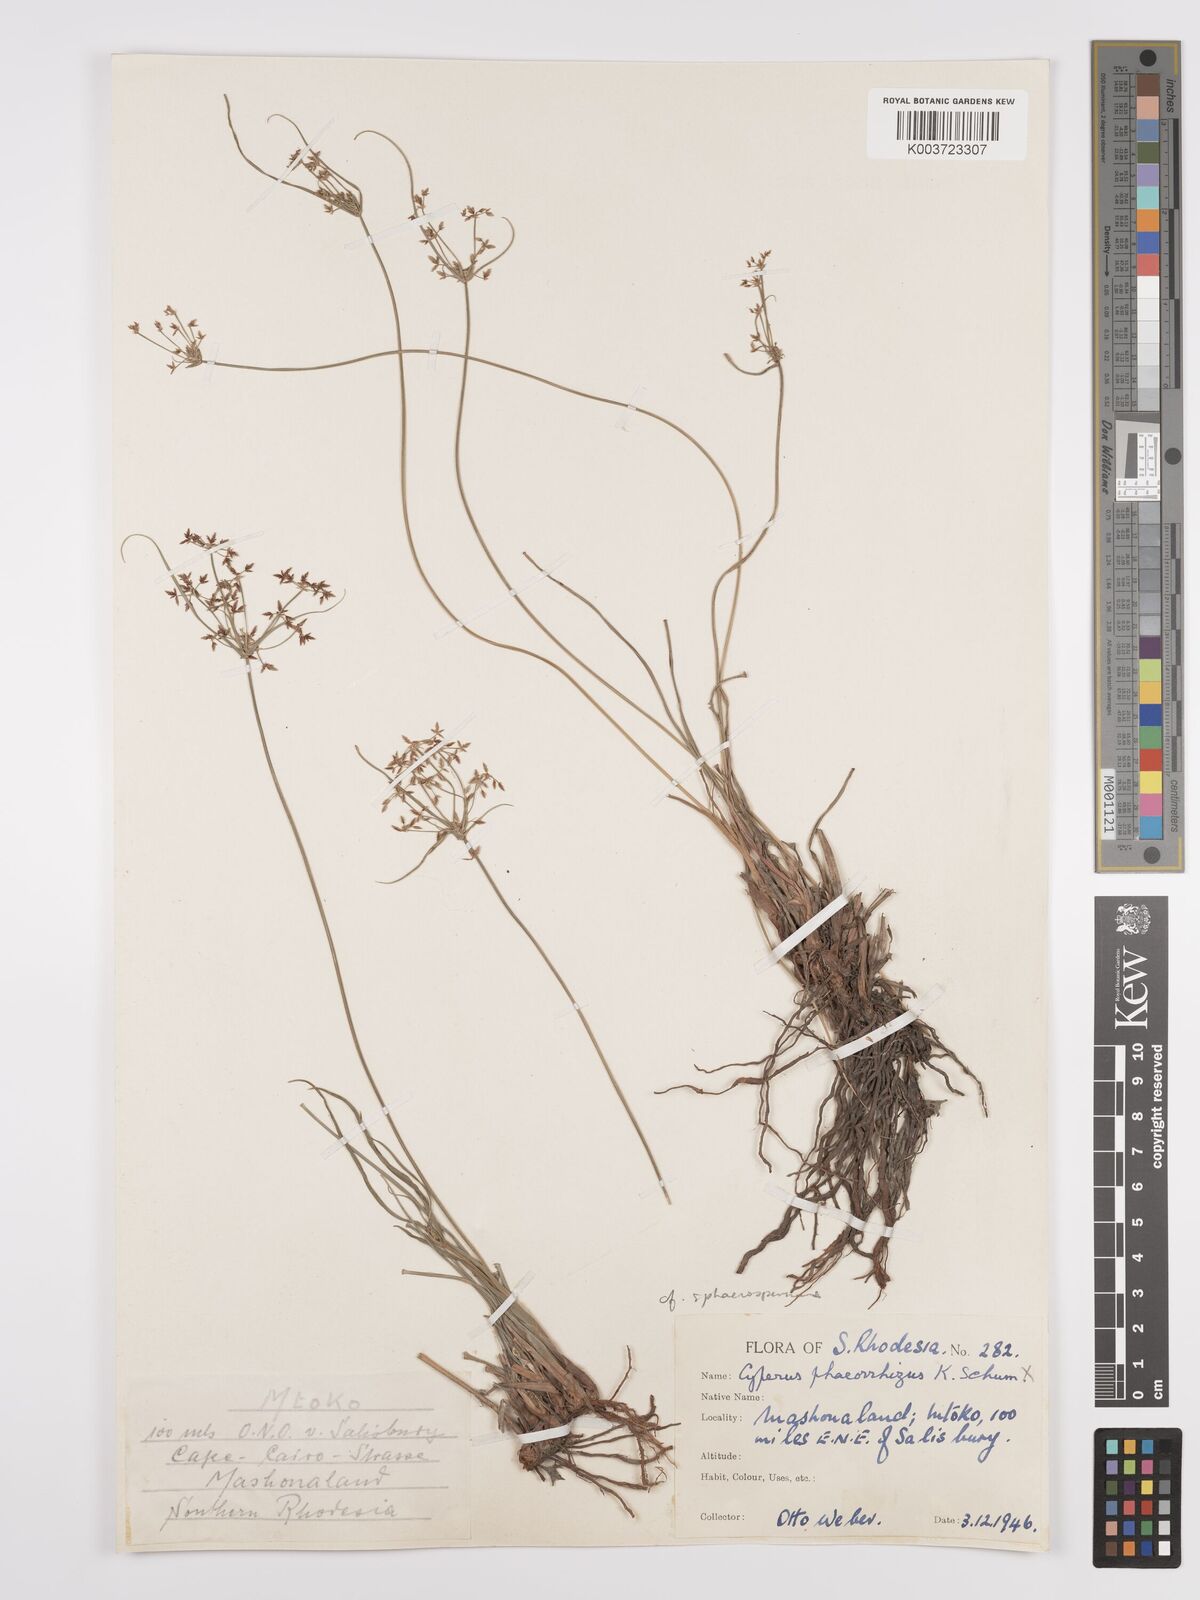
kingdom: Plantae
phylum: Tracheophyta
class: Liliopsida
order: Poales
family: Cyperaceae
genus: Cyperus
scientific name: Cyperus denudatus
